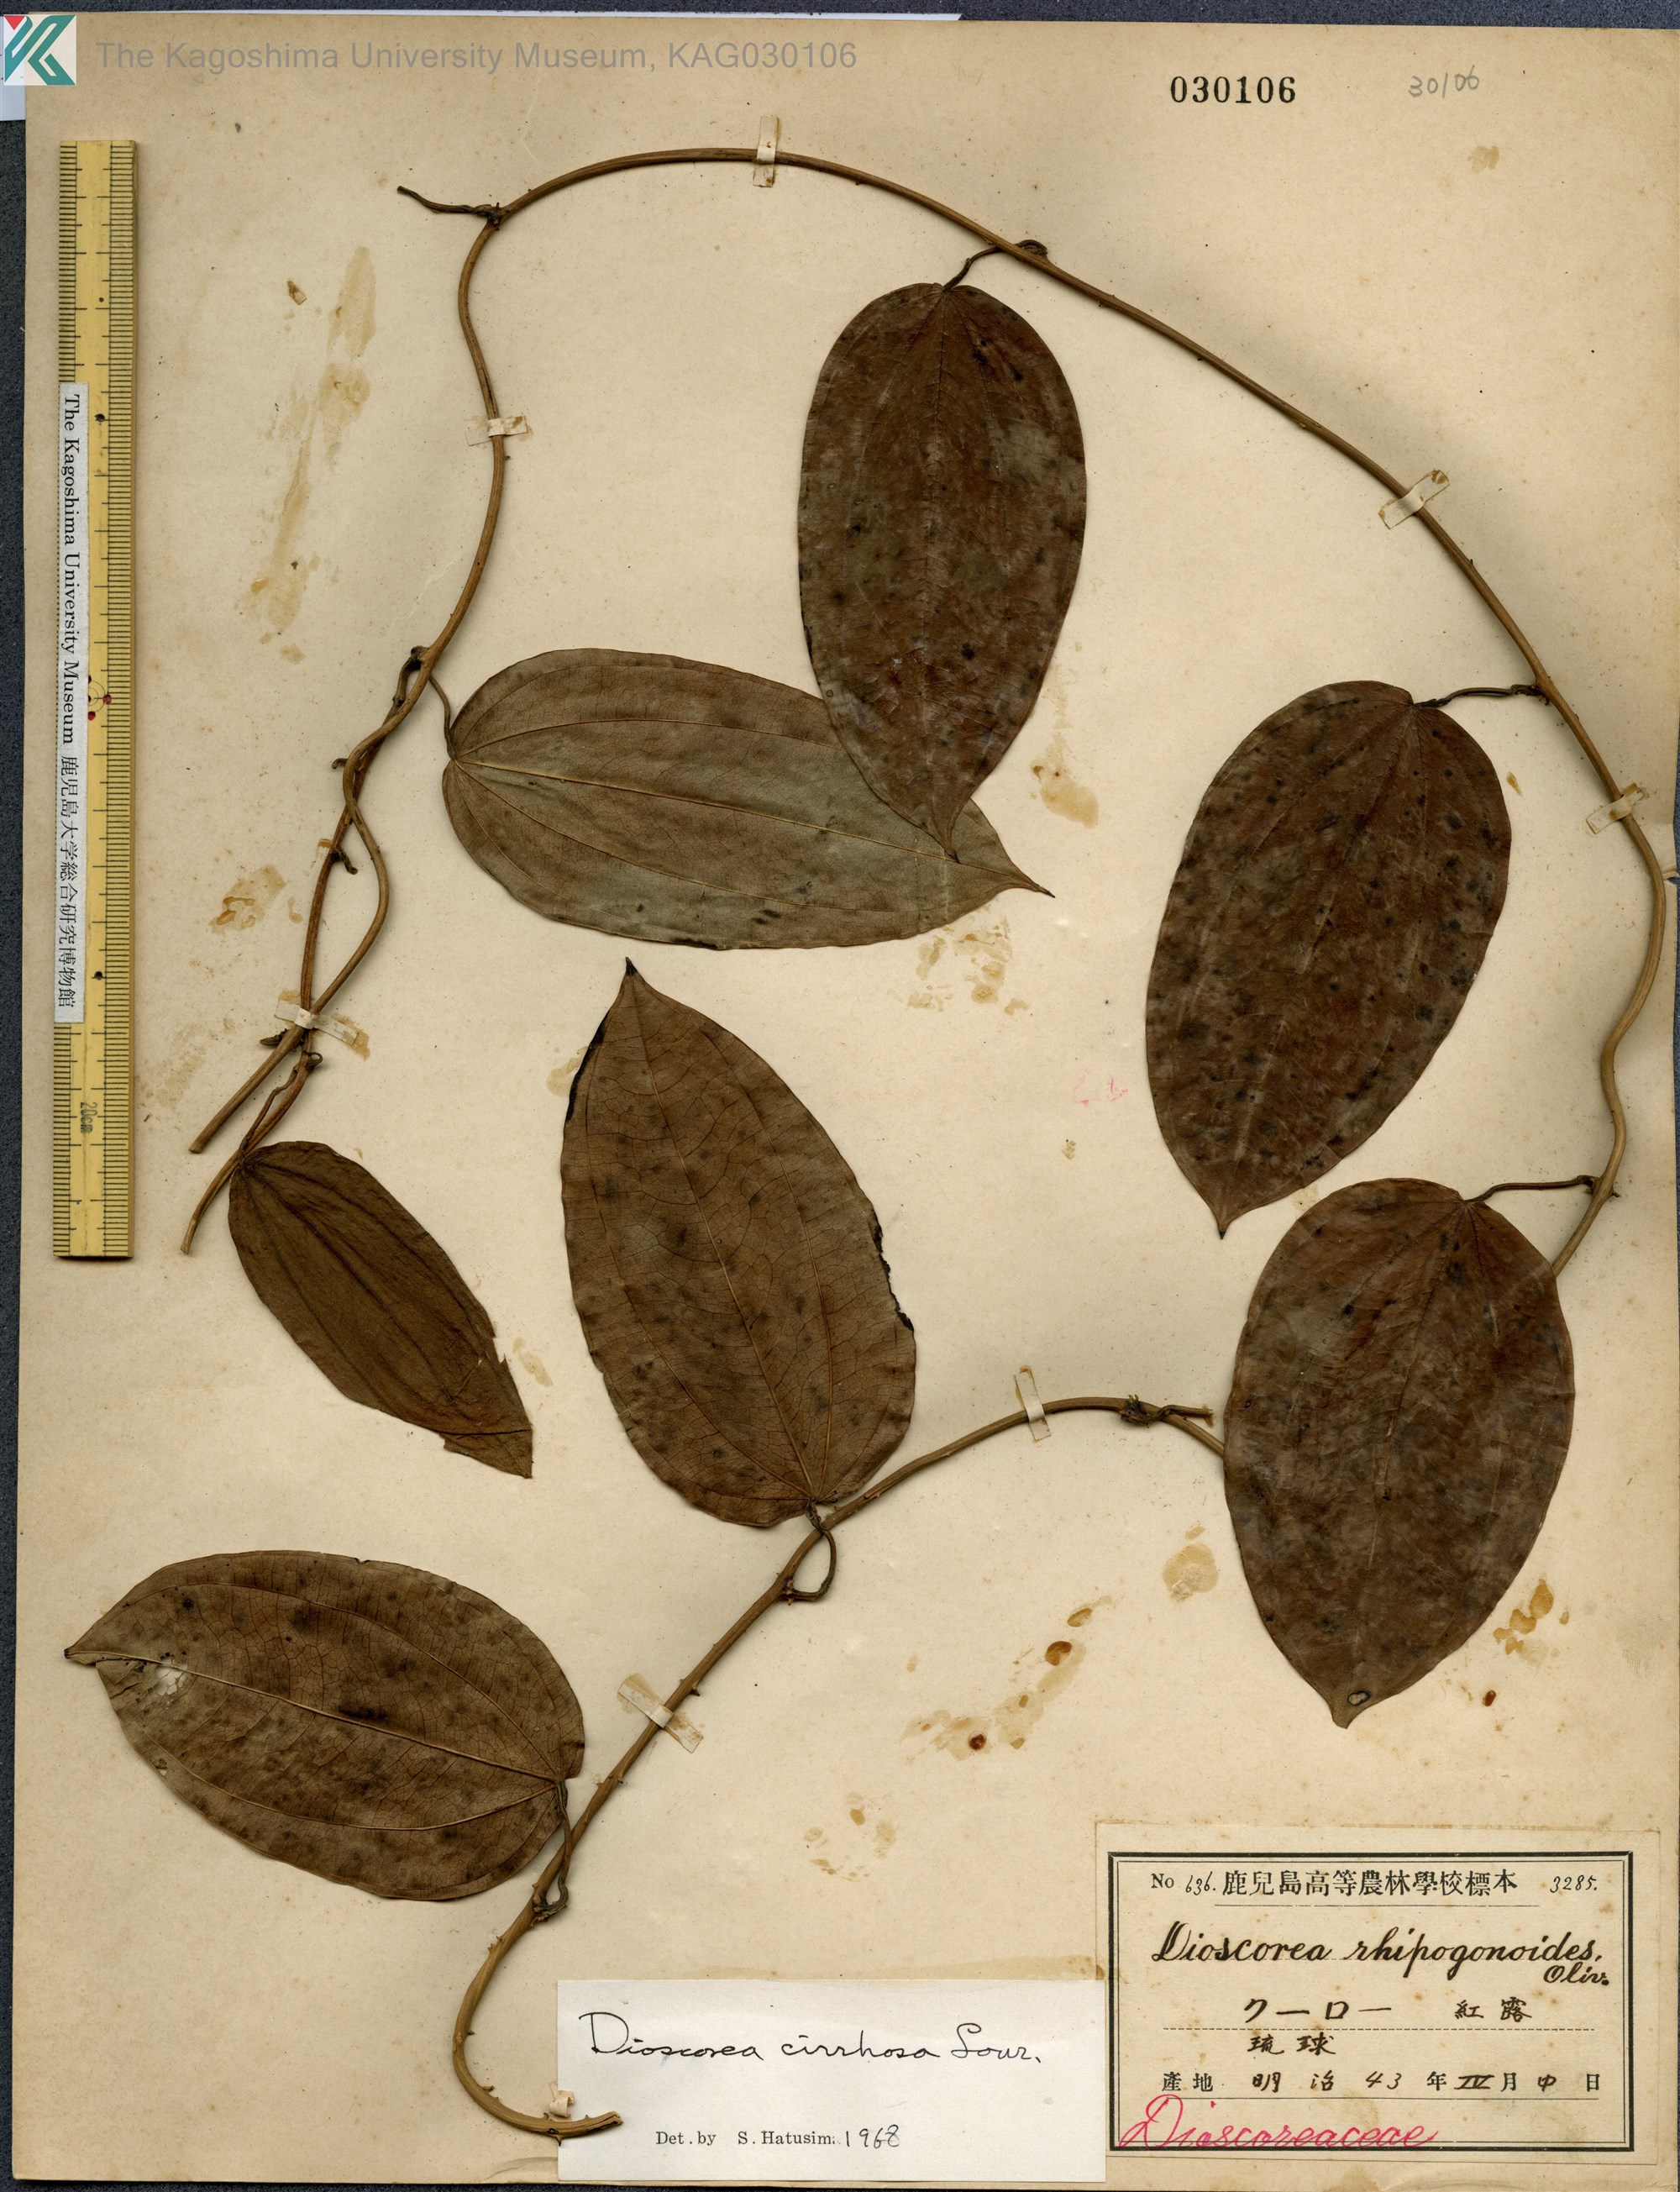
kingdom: Plantae
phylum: Tracheophyta
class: Liliopsida
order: Dioscoreales
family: Dioscoreaceae
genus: Dioscorea
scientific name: Dioscorea cirrhosa
